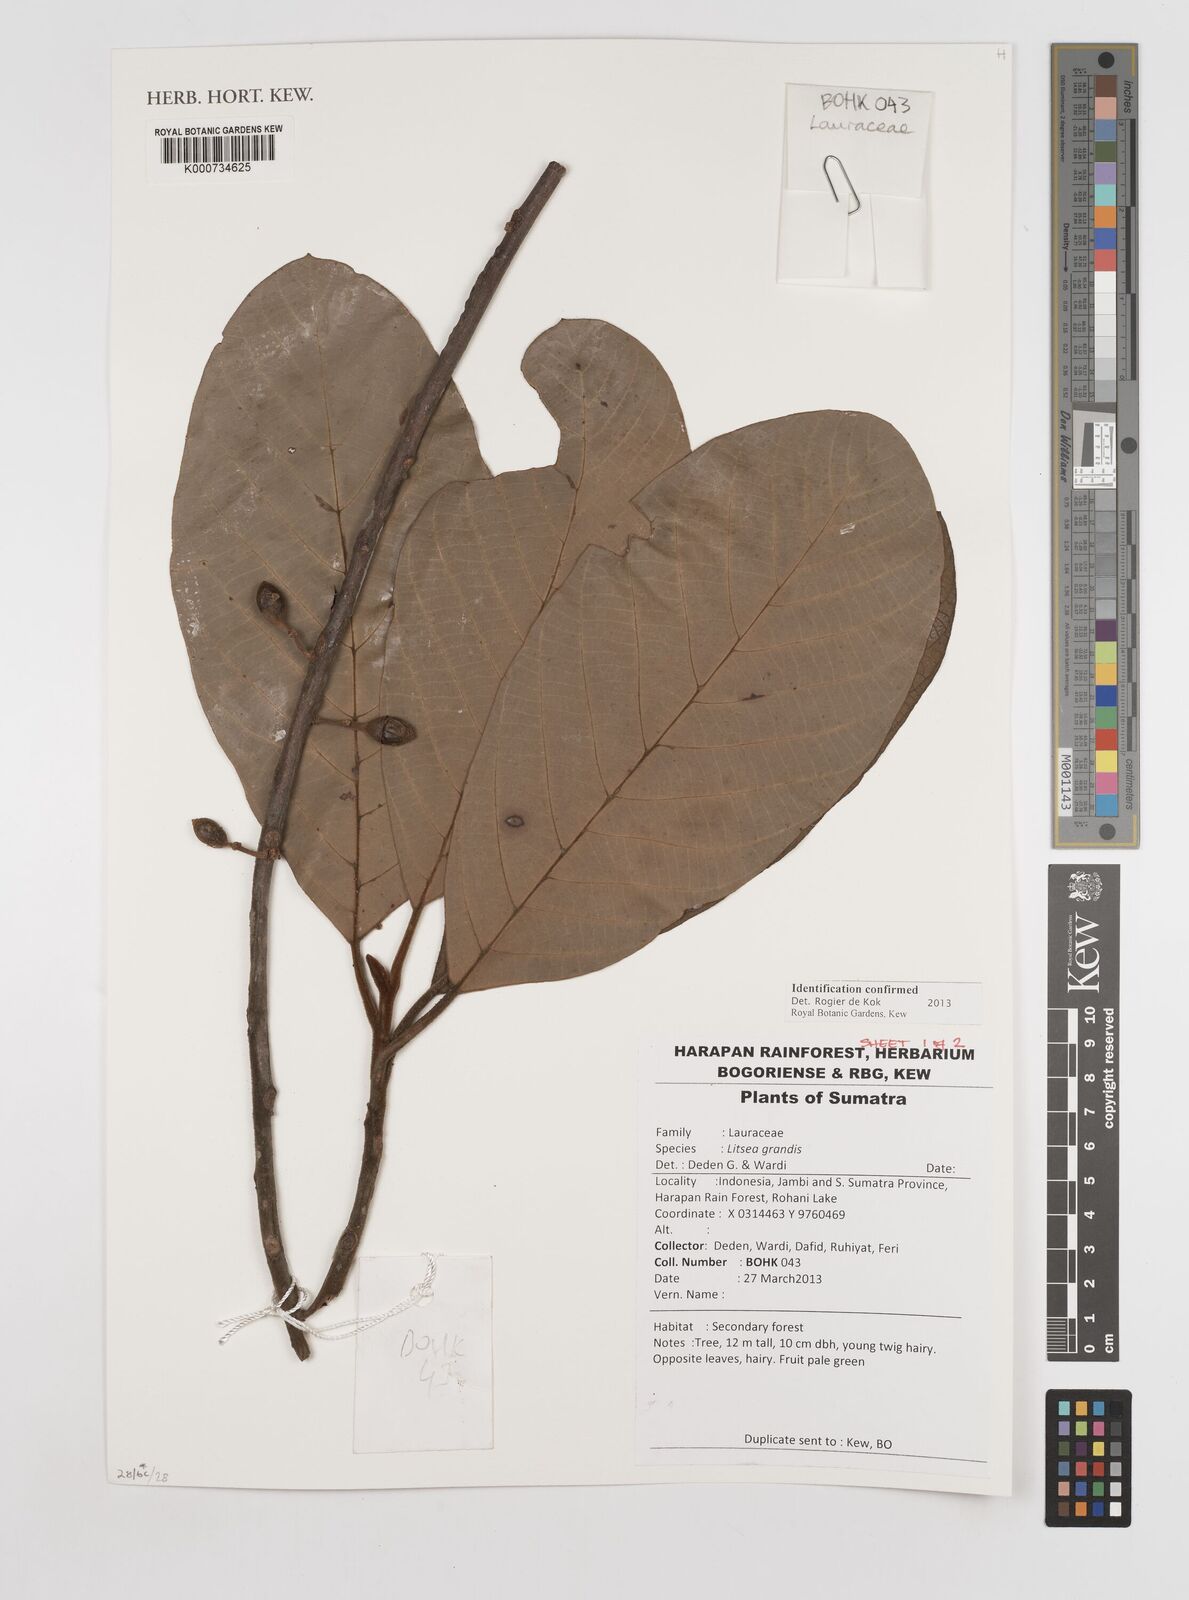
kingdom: Plantae
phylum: Tracheophyta
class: Magnoliopsida
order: Laurales
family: Lauraceae
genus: Litsea
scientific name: Litsea grandis
